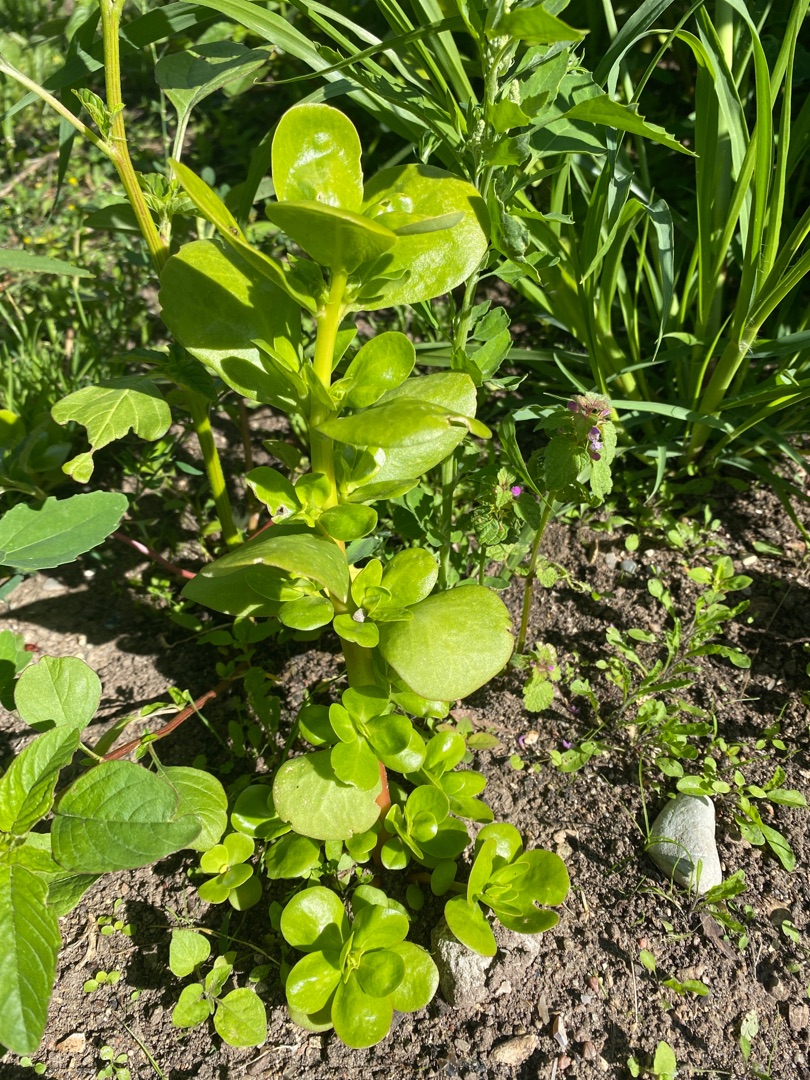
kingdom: Plantae
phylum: Tracheophyta
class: Magnoliopsida
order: Caryophyllales
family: Portulacaceae
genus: Portulaca
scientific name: Portulaca oleracea
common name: Portulak
